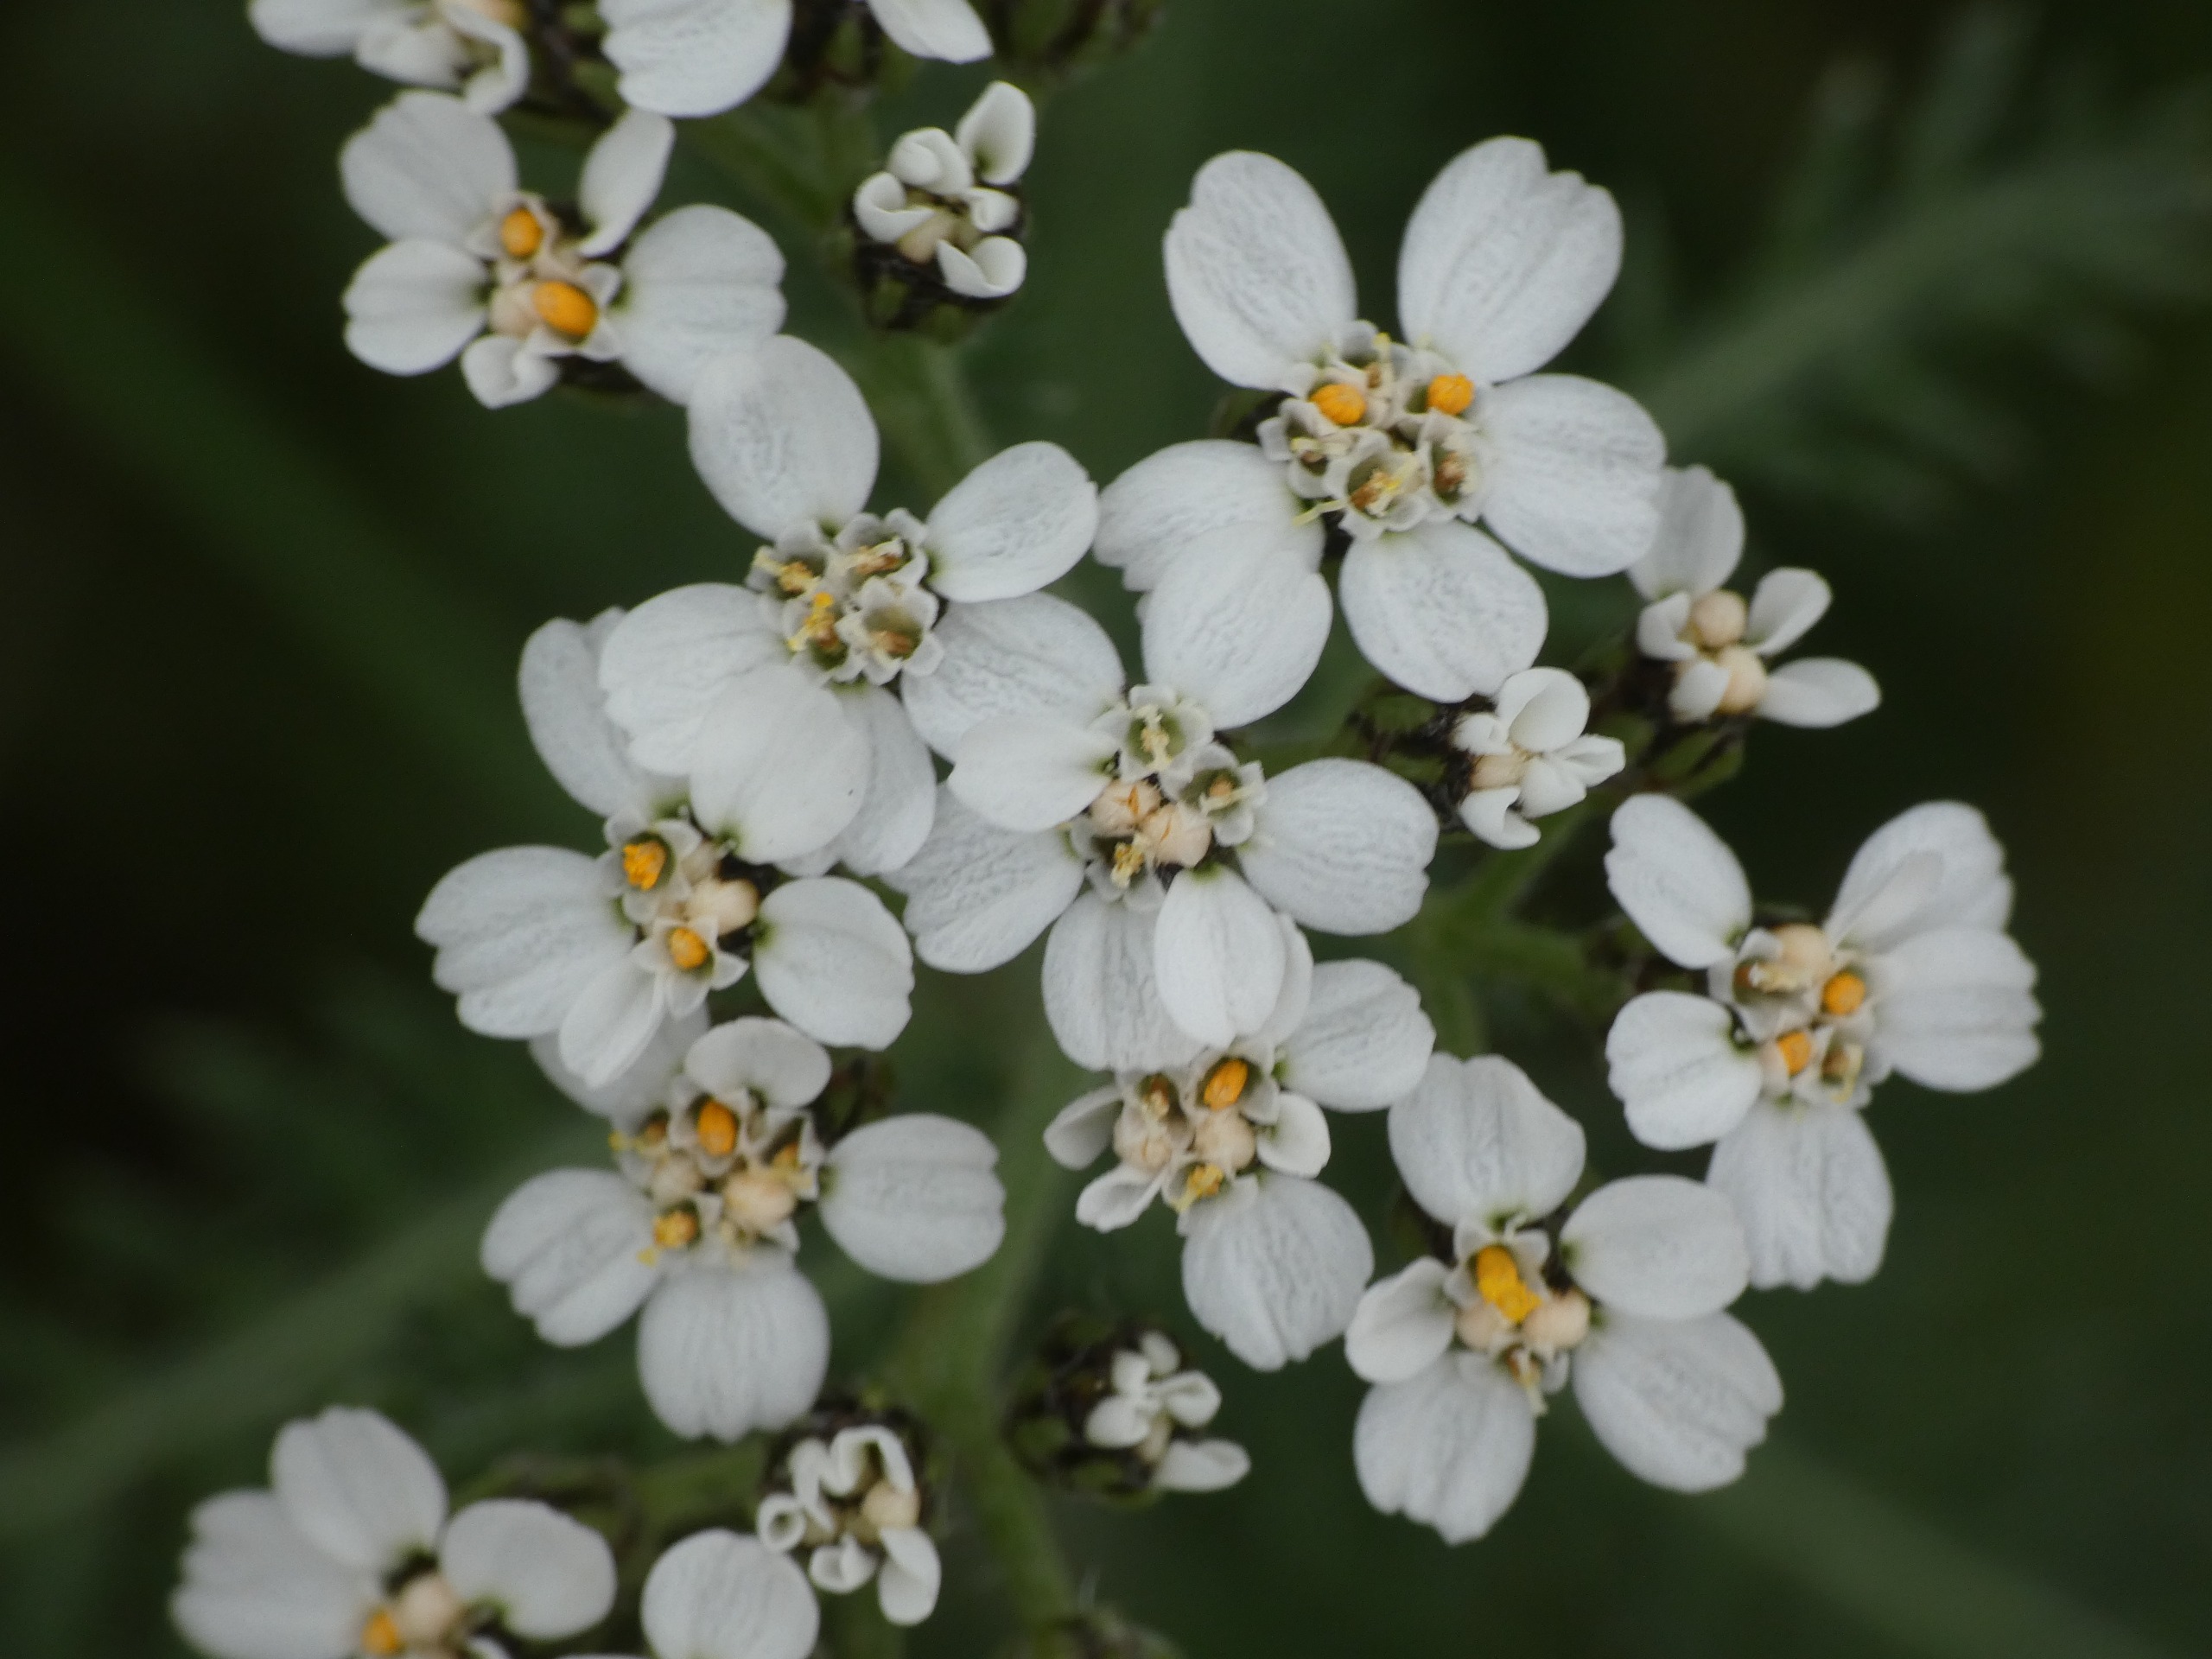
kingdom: Plantae
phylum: Tracheophyta
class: Magnoliopsida
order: Asterales
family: Asteraceae
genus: Achillea
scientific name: Achillea millefolium
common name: Almindelig røllike
